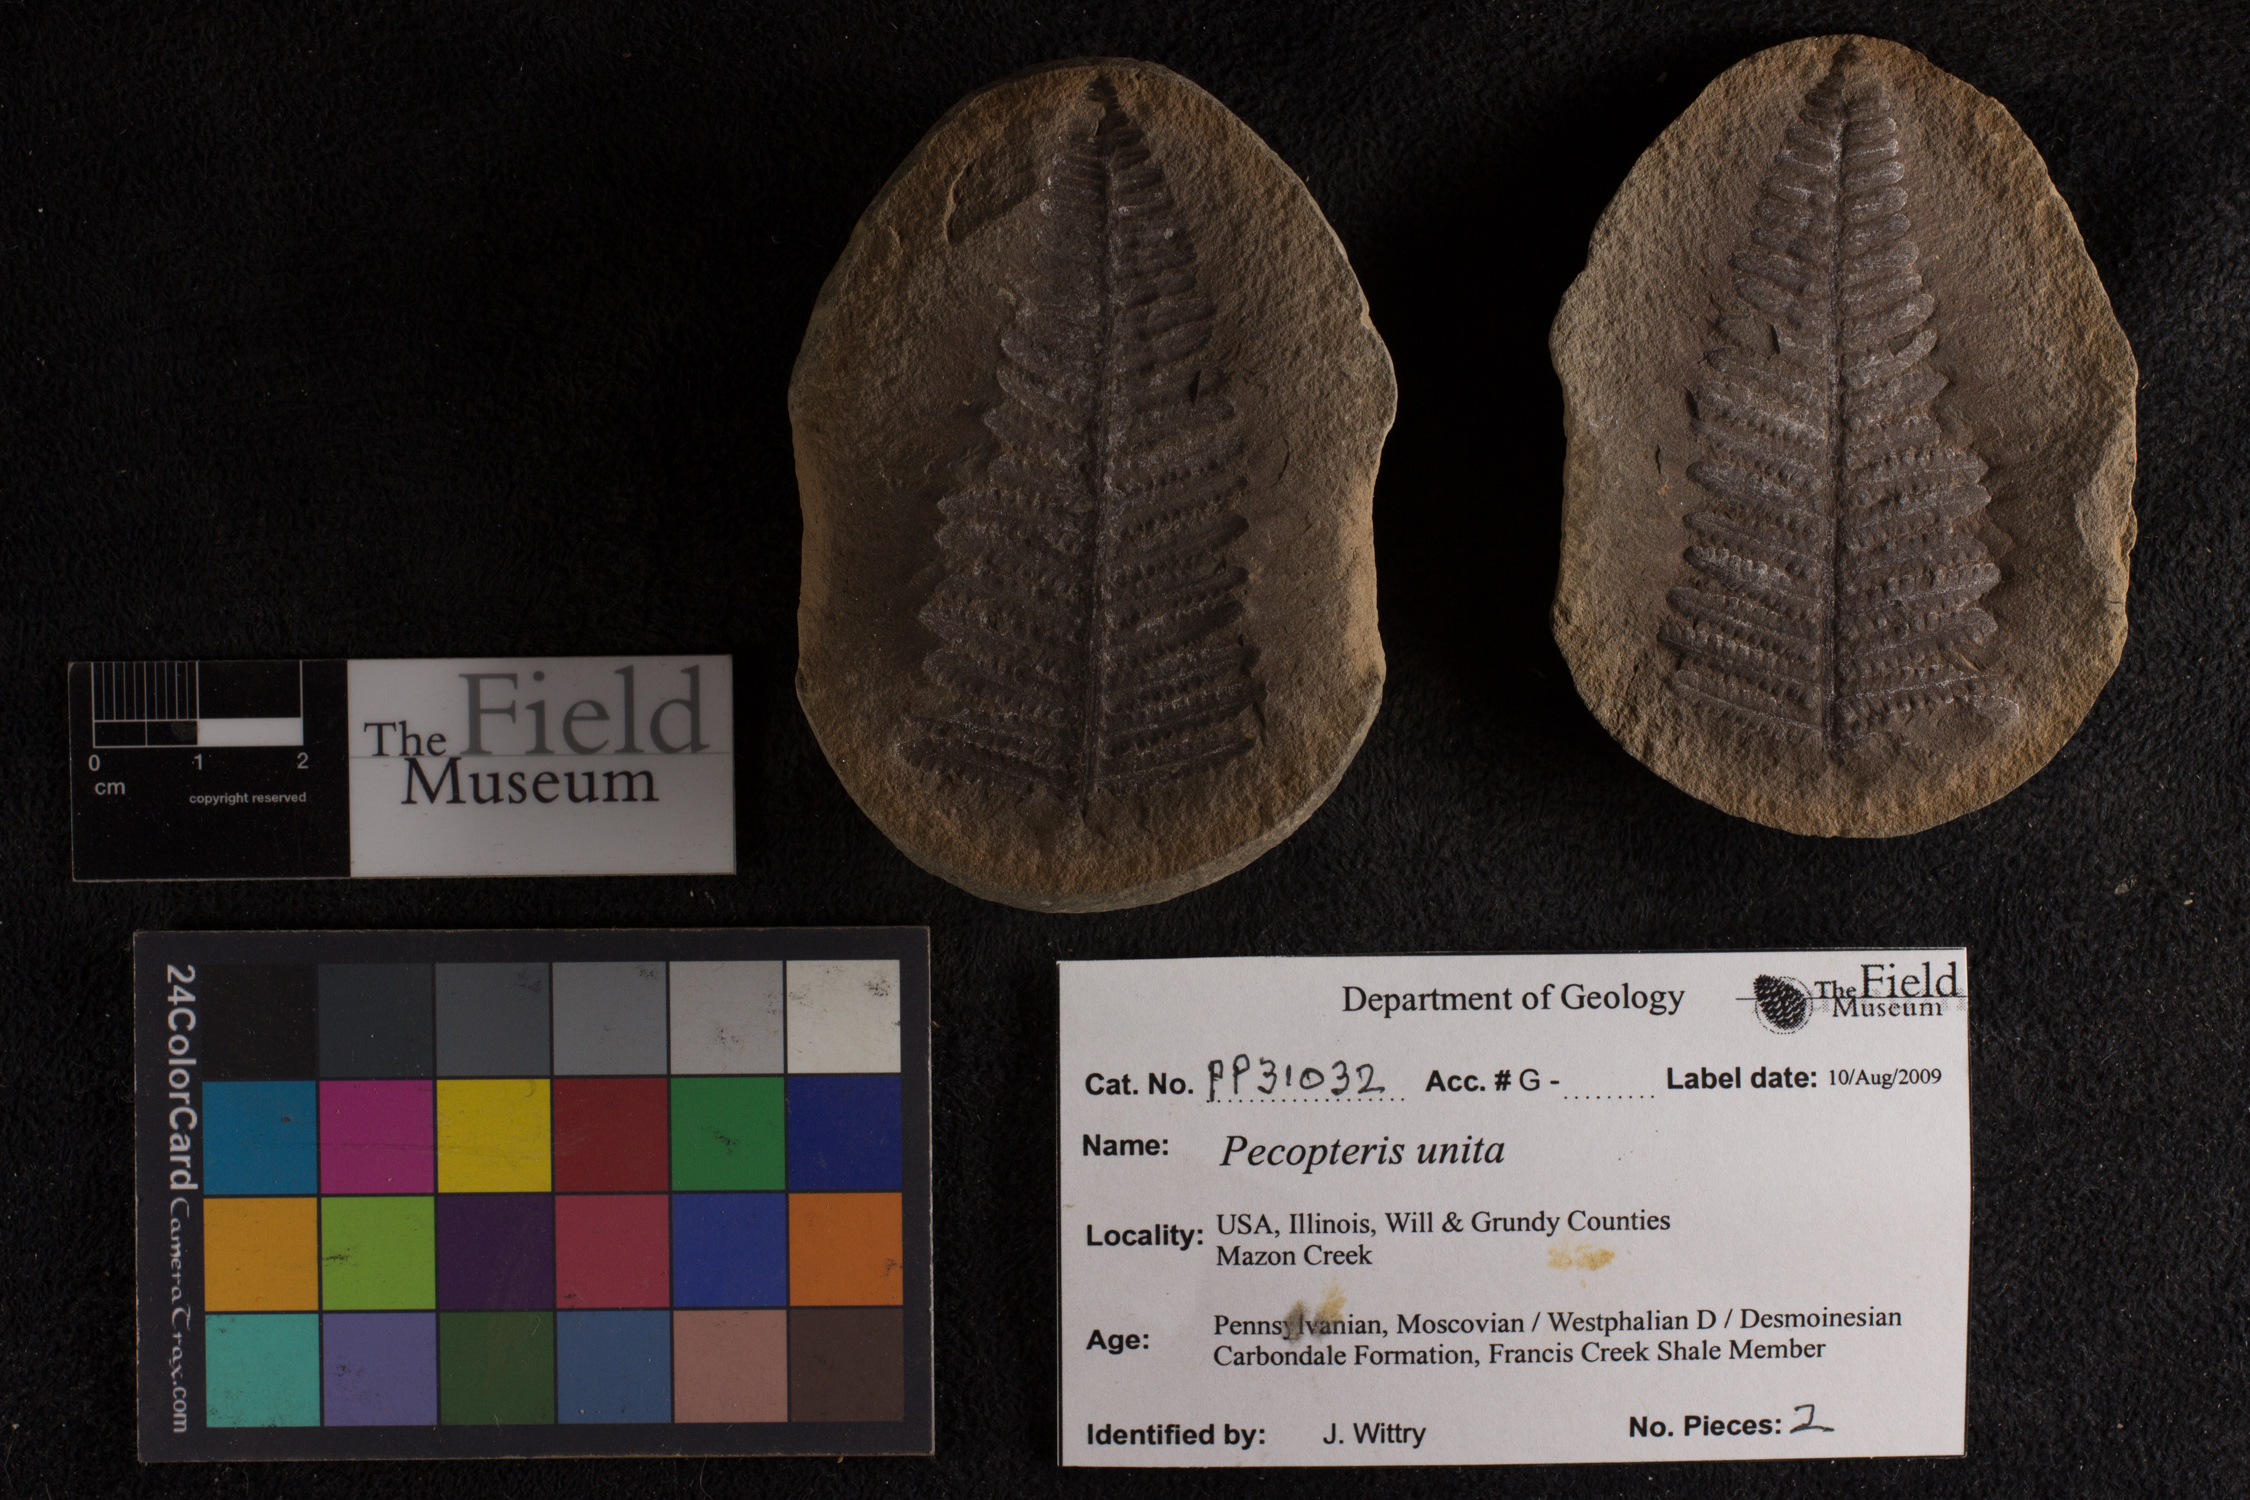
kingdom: Plantae
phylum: Tracheophyta
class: Polypodiopsida
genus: Diplazites
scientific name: Diplazites
